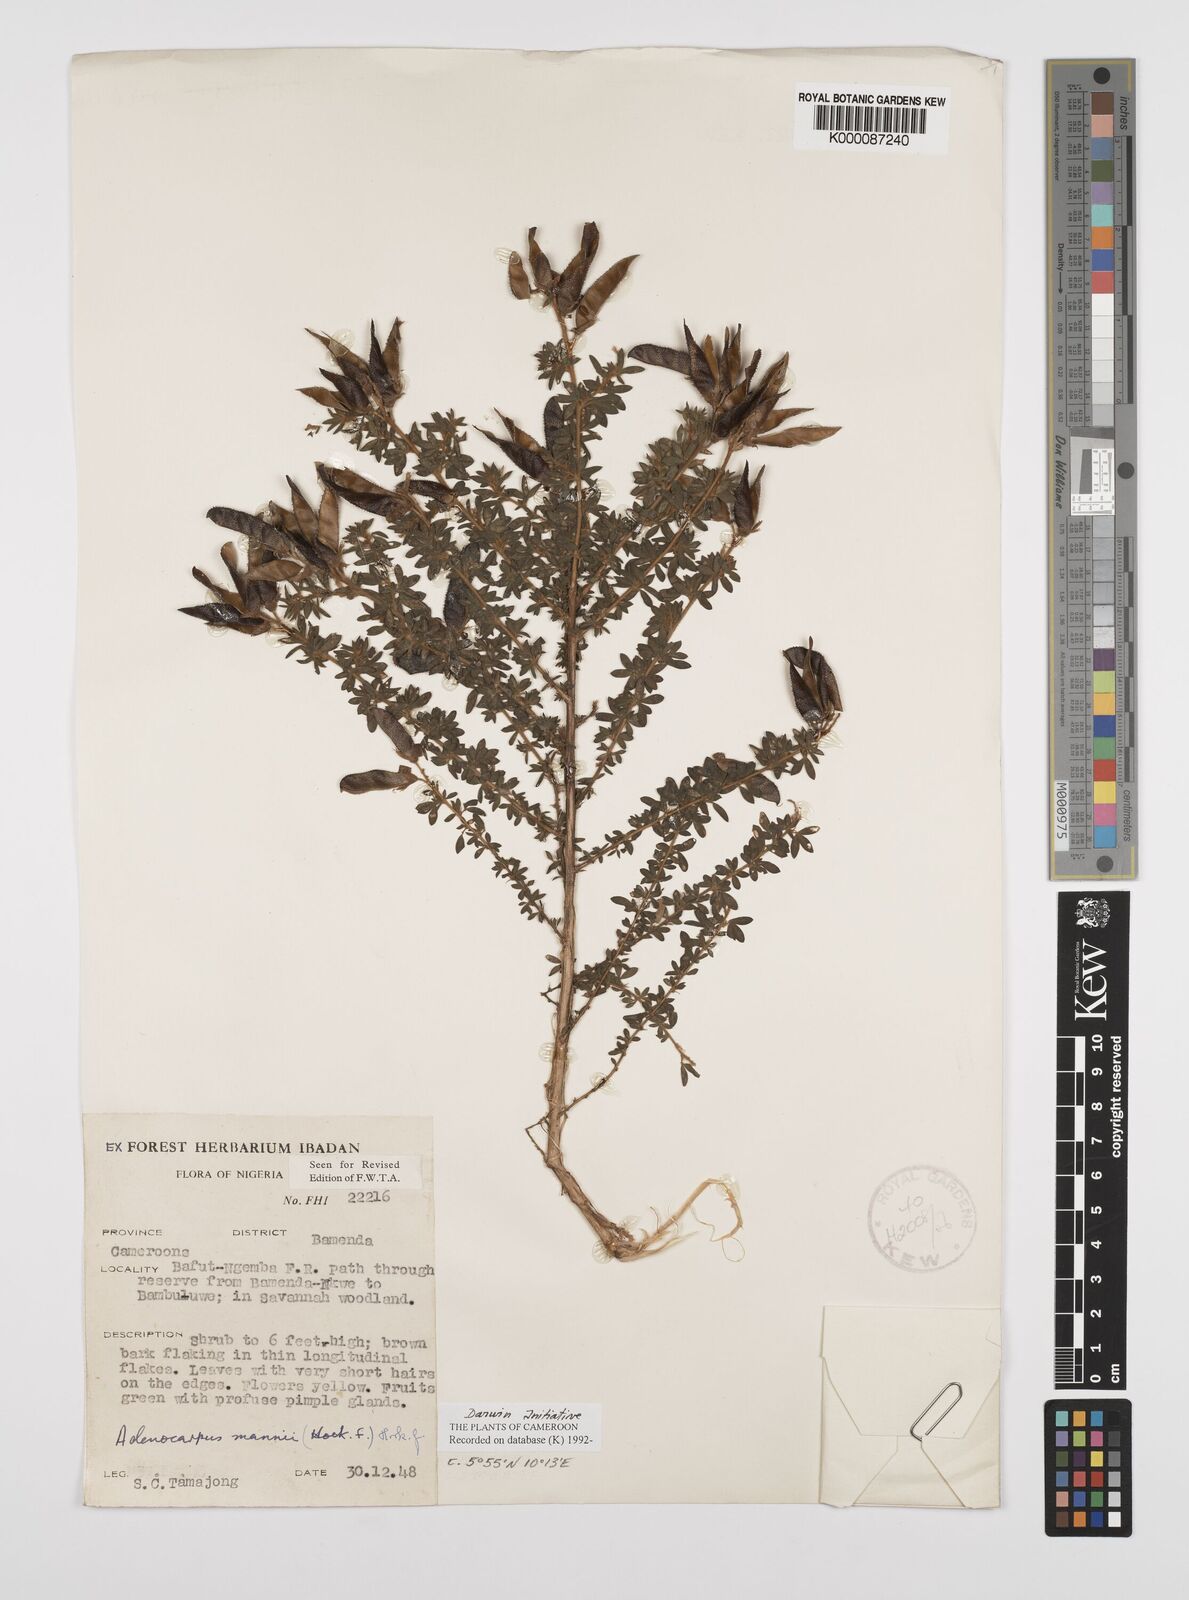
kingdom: Plantae
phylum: Tracheophyta
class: Magnoliopsida
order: Fabales
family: Fabaceae
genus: Adenocarpus
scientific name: Adenocarpus mannii
